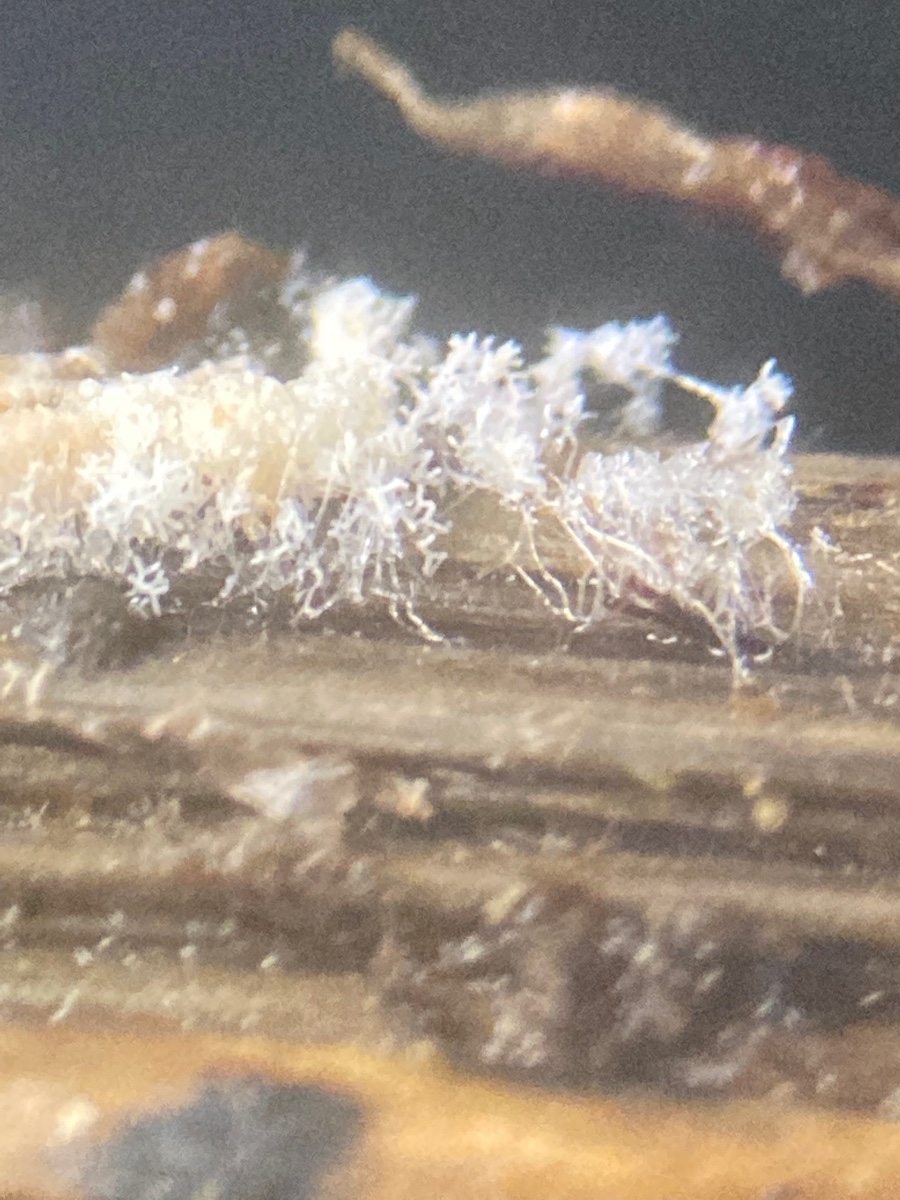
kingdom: Fungi
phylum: Ascomycota
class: Pezizomycetes
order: Pezizales
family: Pezizaceae
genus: Ostracoderma
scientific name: Ostracoderma ochraceum
